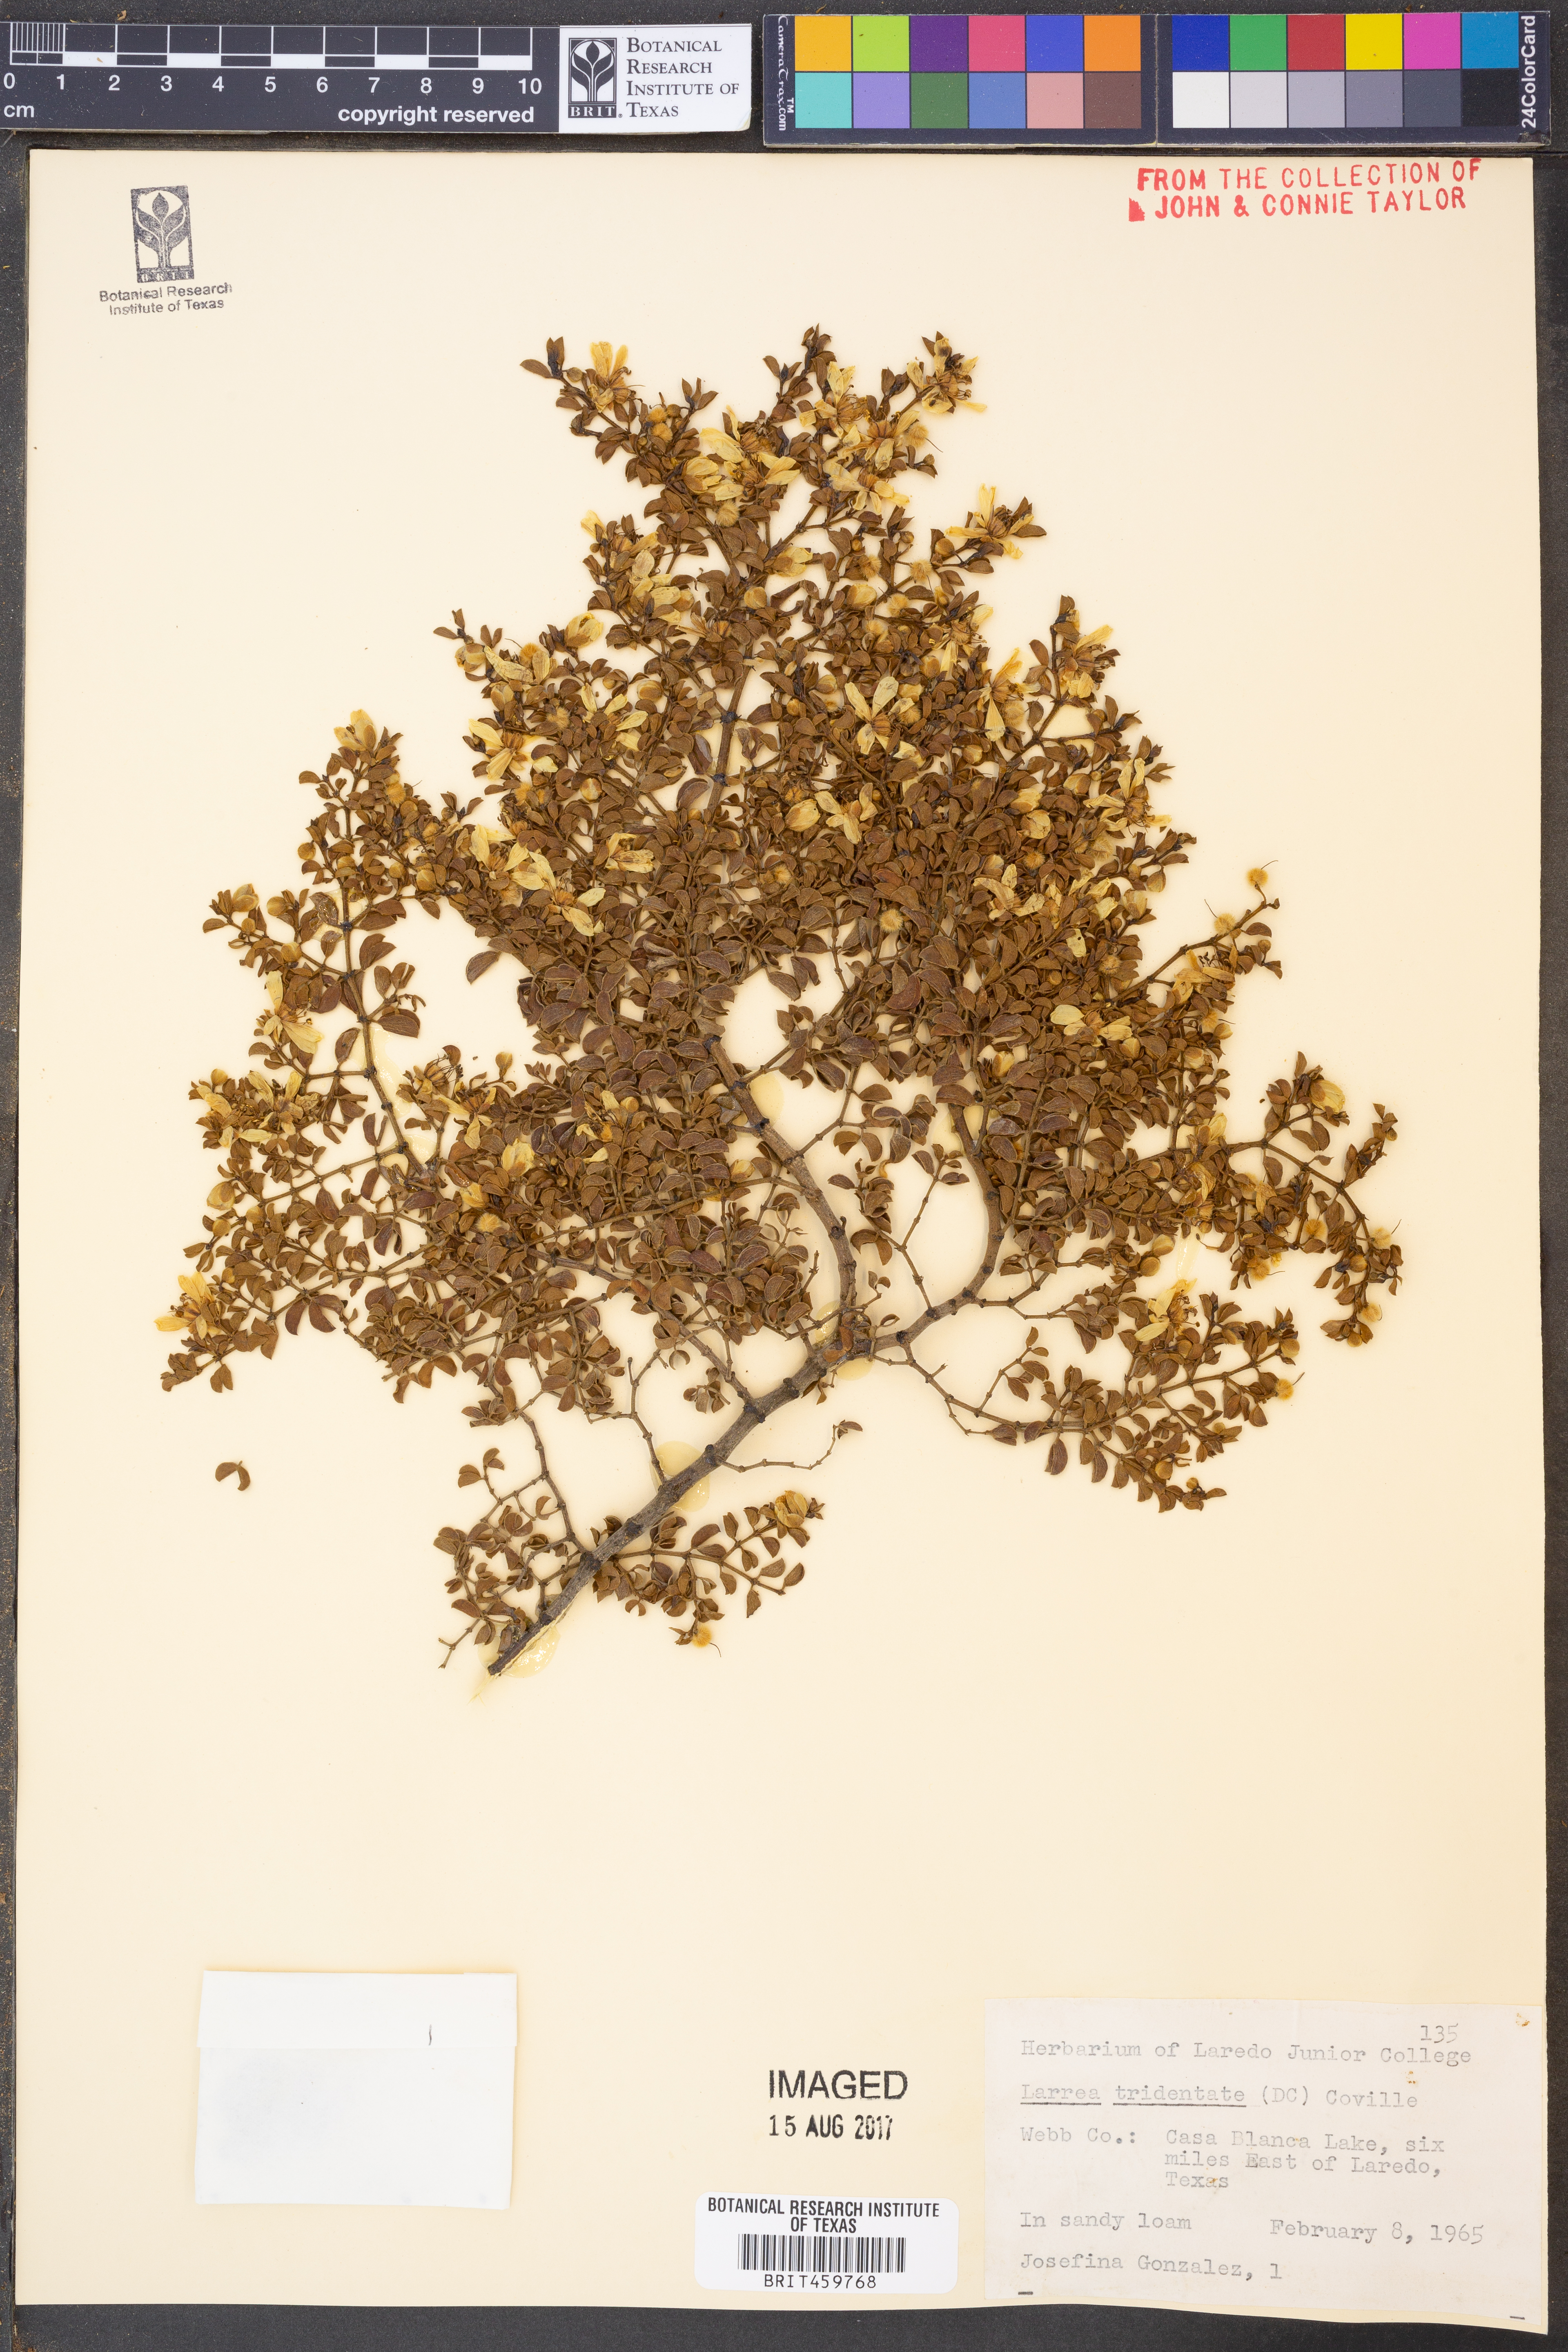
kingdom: Plantae
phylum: Tracheophyta
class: Magnoliopsida
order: Zygophyllales
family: Zygophyllaceae
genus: Larrea
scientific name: Larrea tridentata
